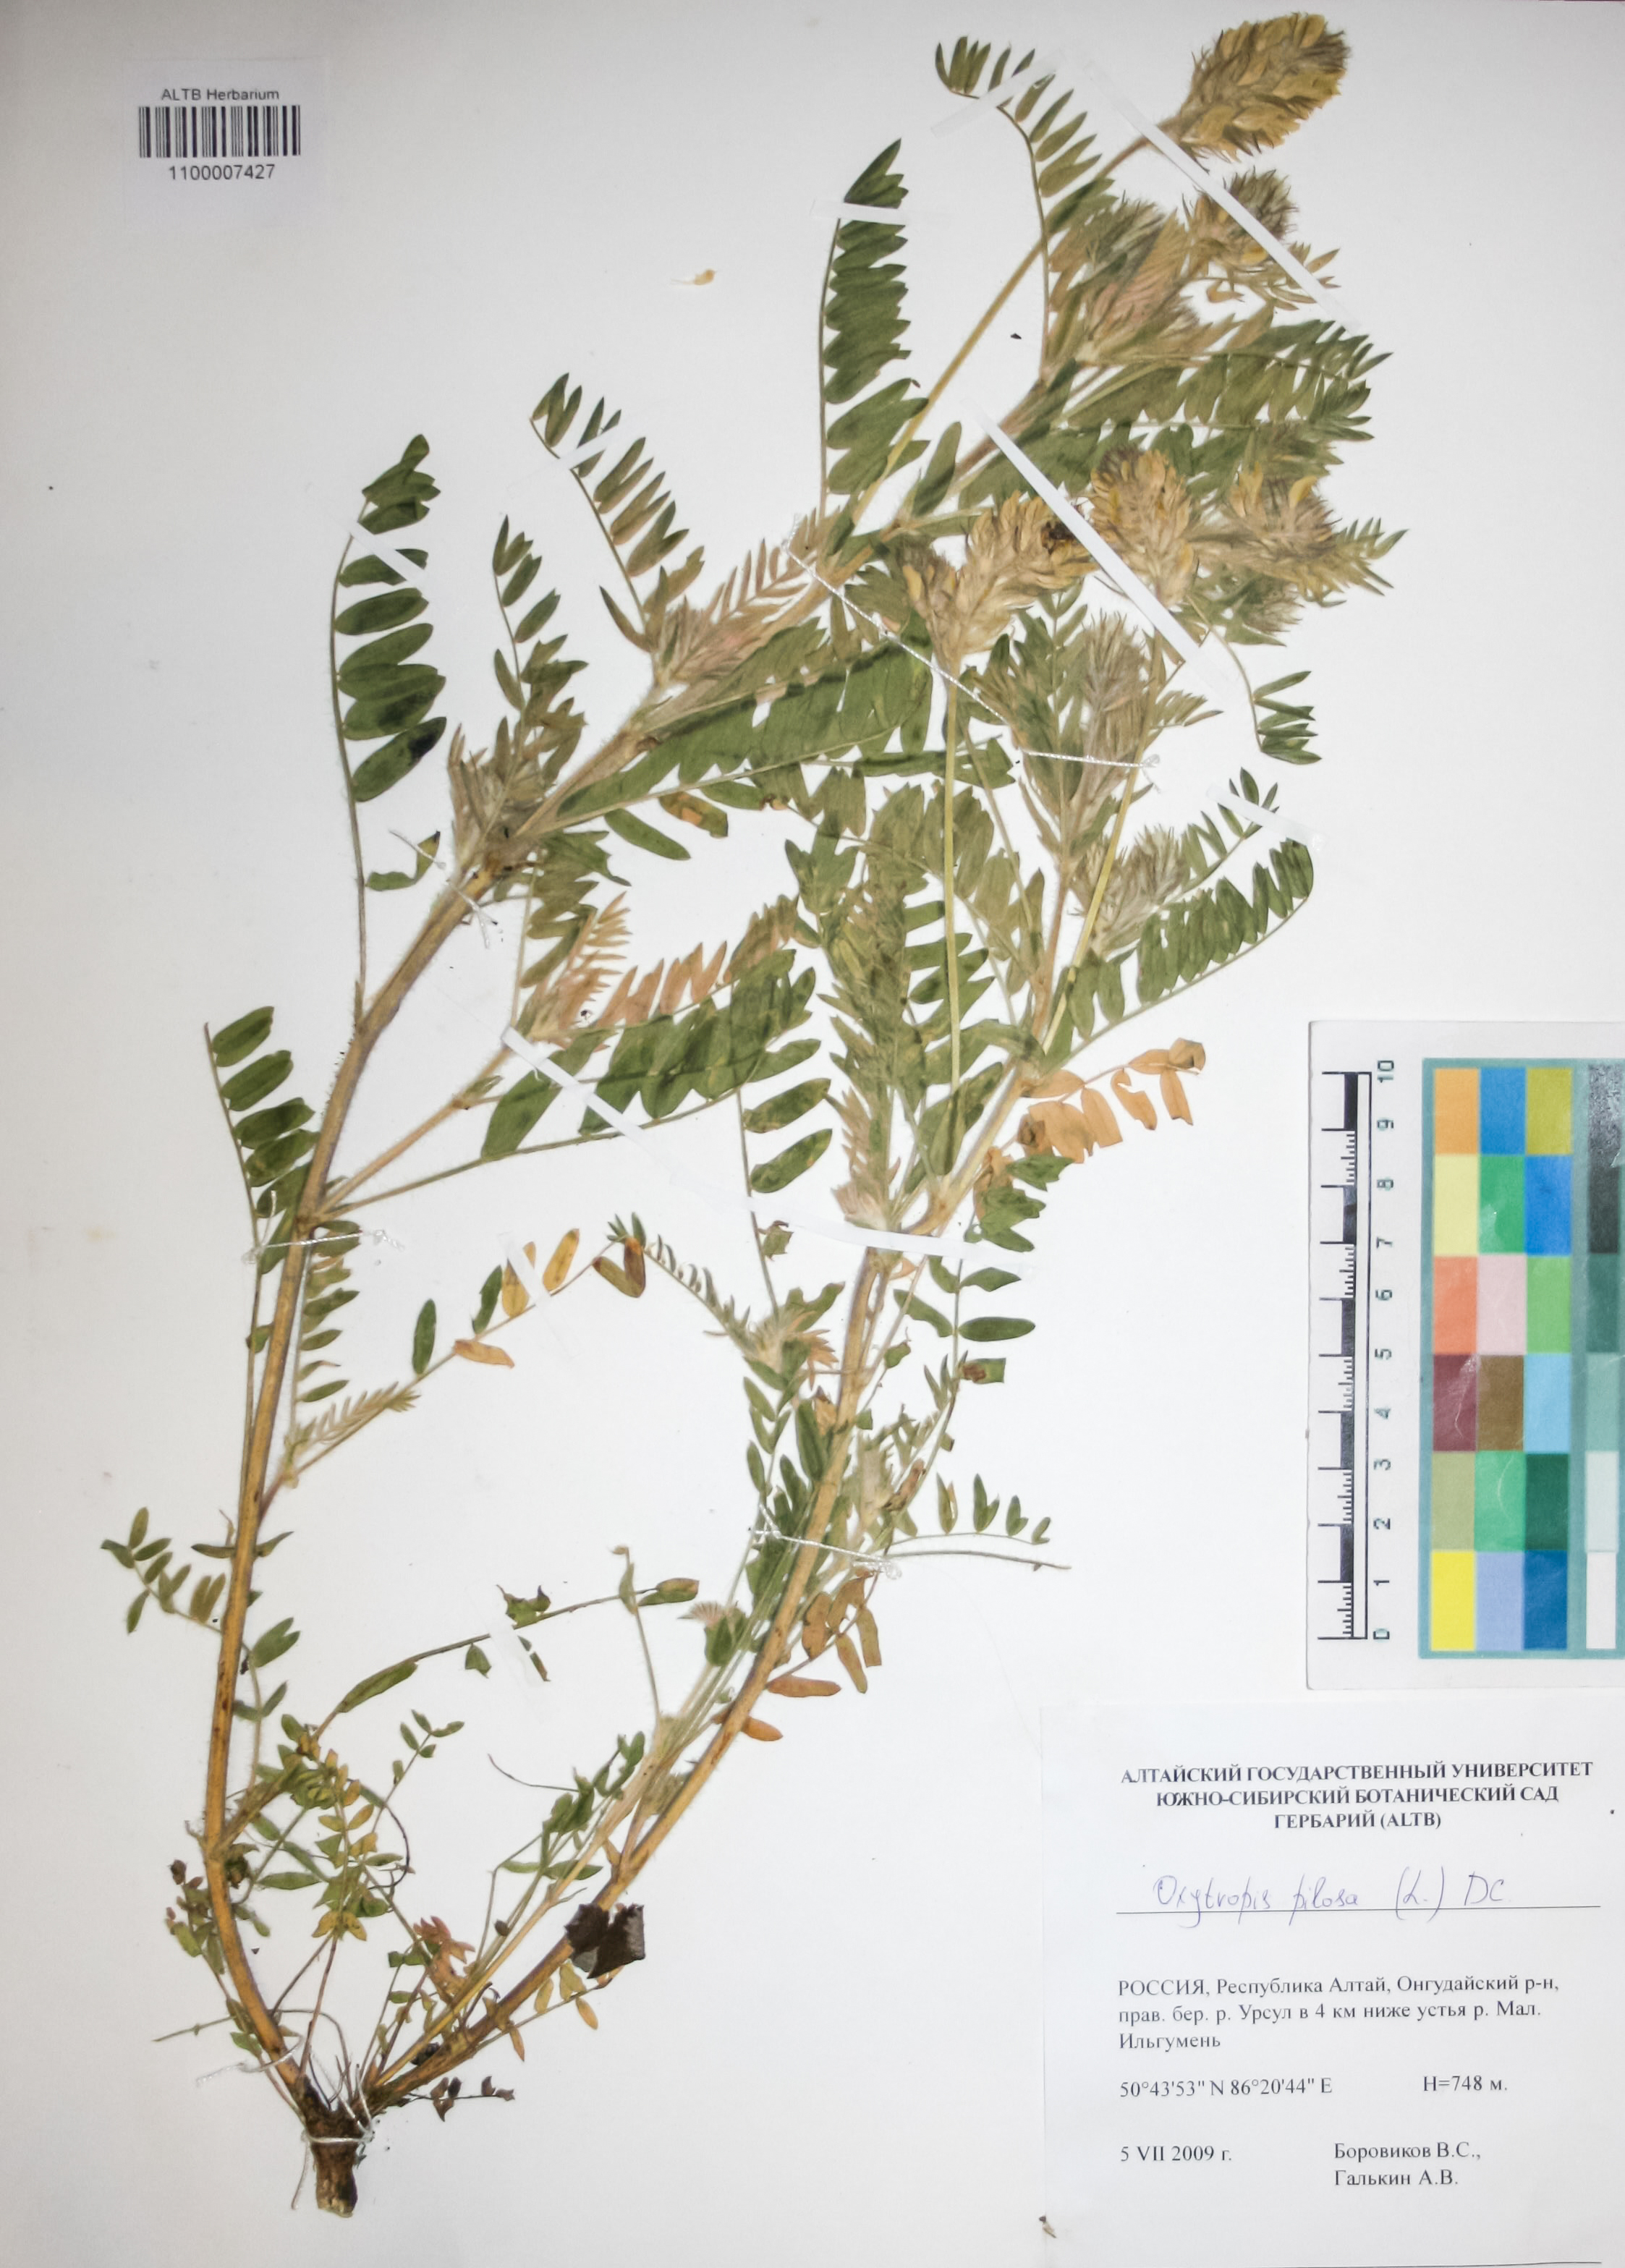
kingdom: Plantae
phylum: Tracheophyta
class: Magnoliopsida
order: Fabales
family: Fabaceae
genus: Oxytropis
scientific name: Oxytropis pilosa
